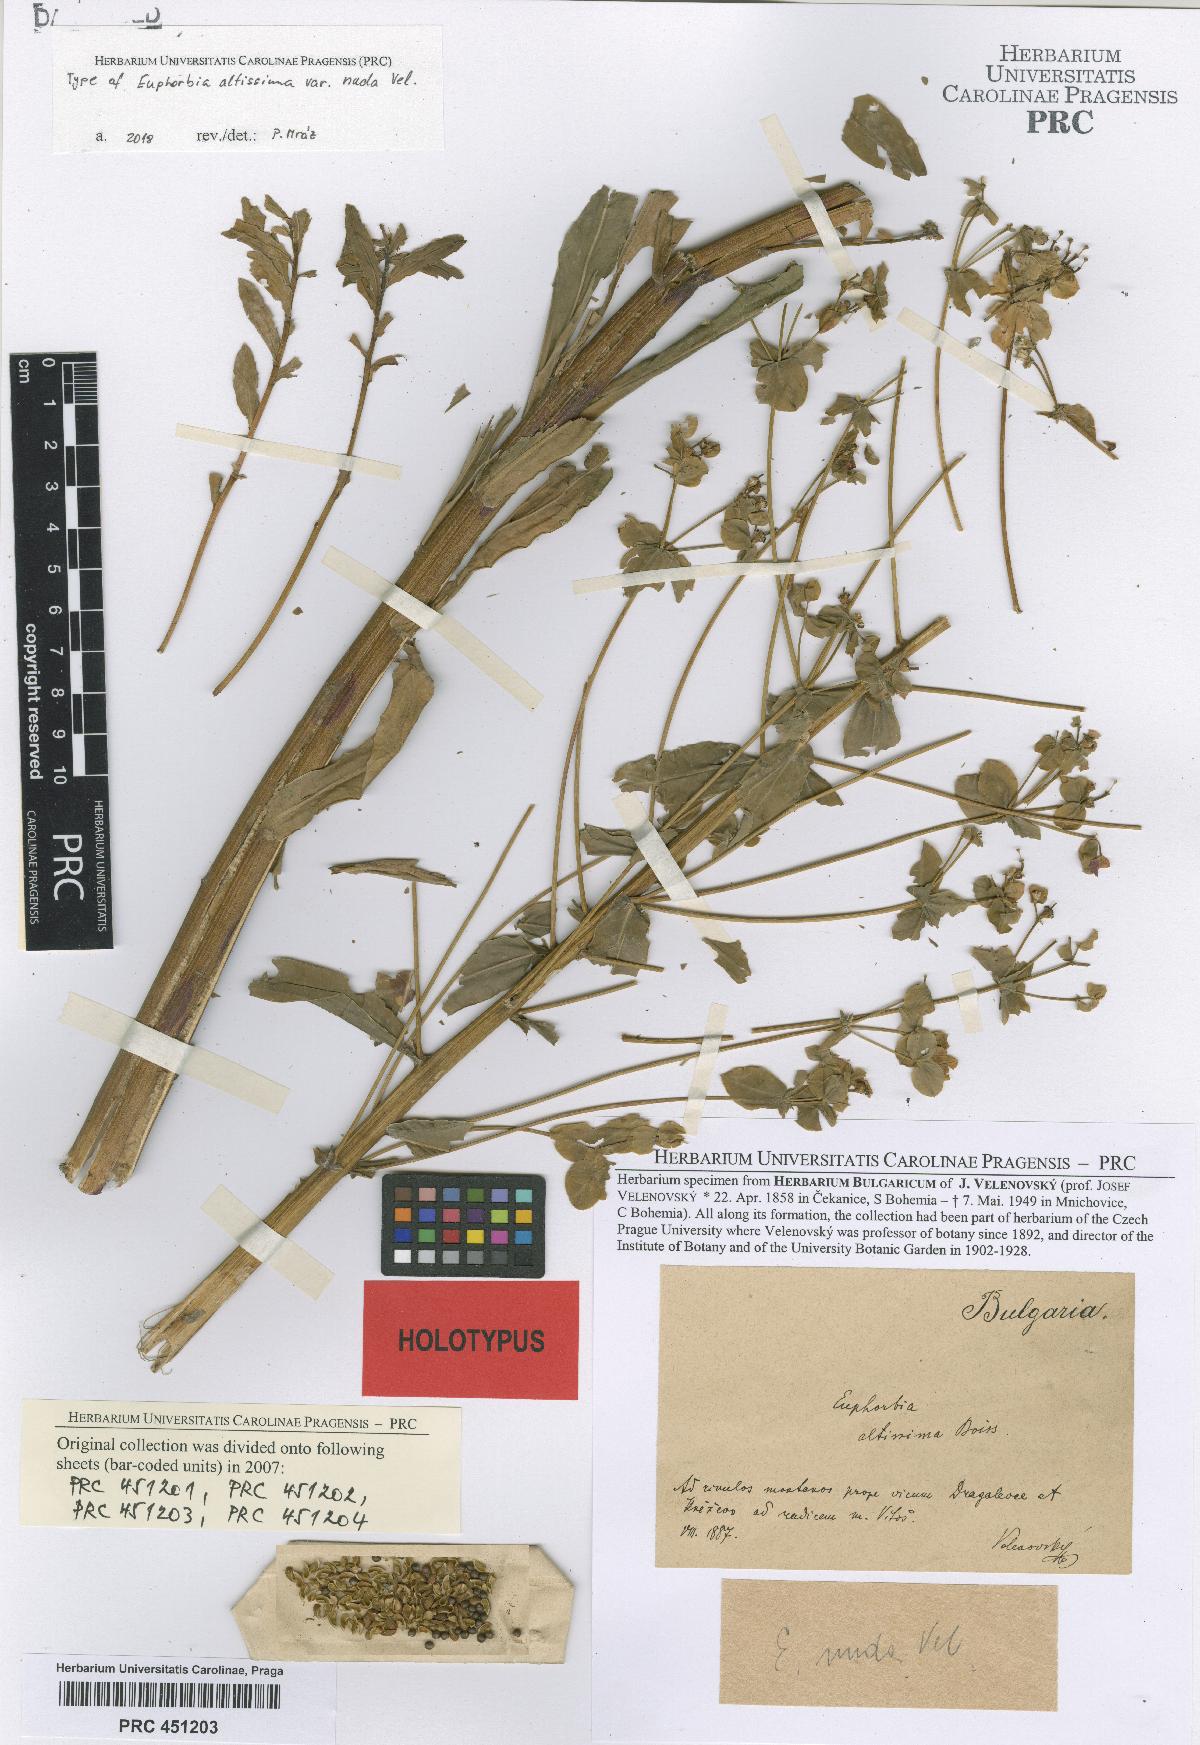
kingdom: Plantae
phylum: Tracheophyta
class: Magnoliopsida
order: Malpighiales
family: Euphorbiaceae
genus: Euphorbia
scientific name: Euphorbia altissima
